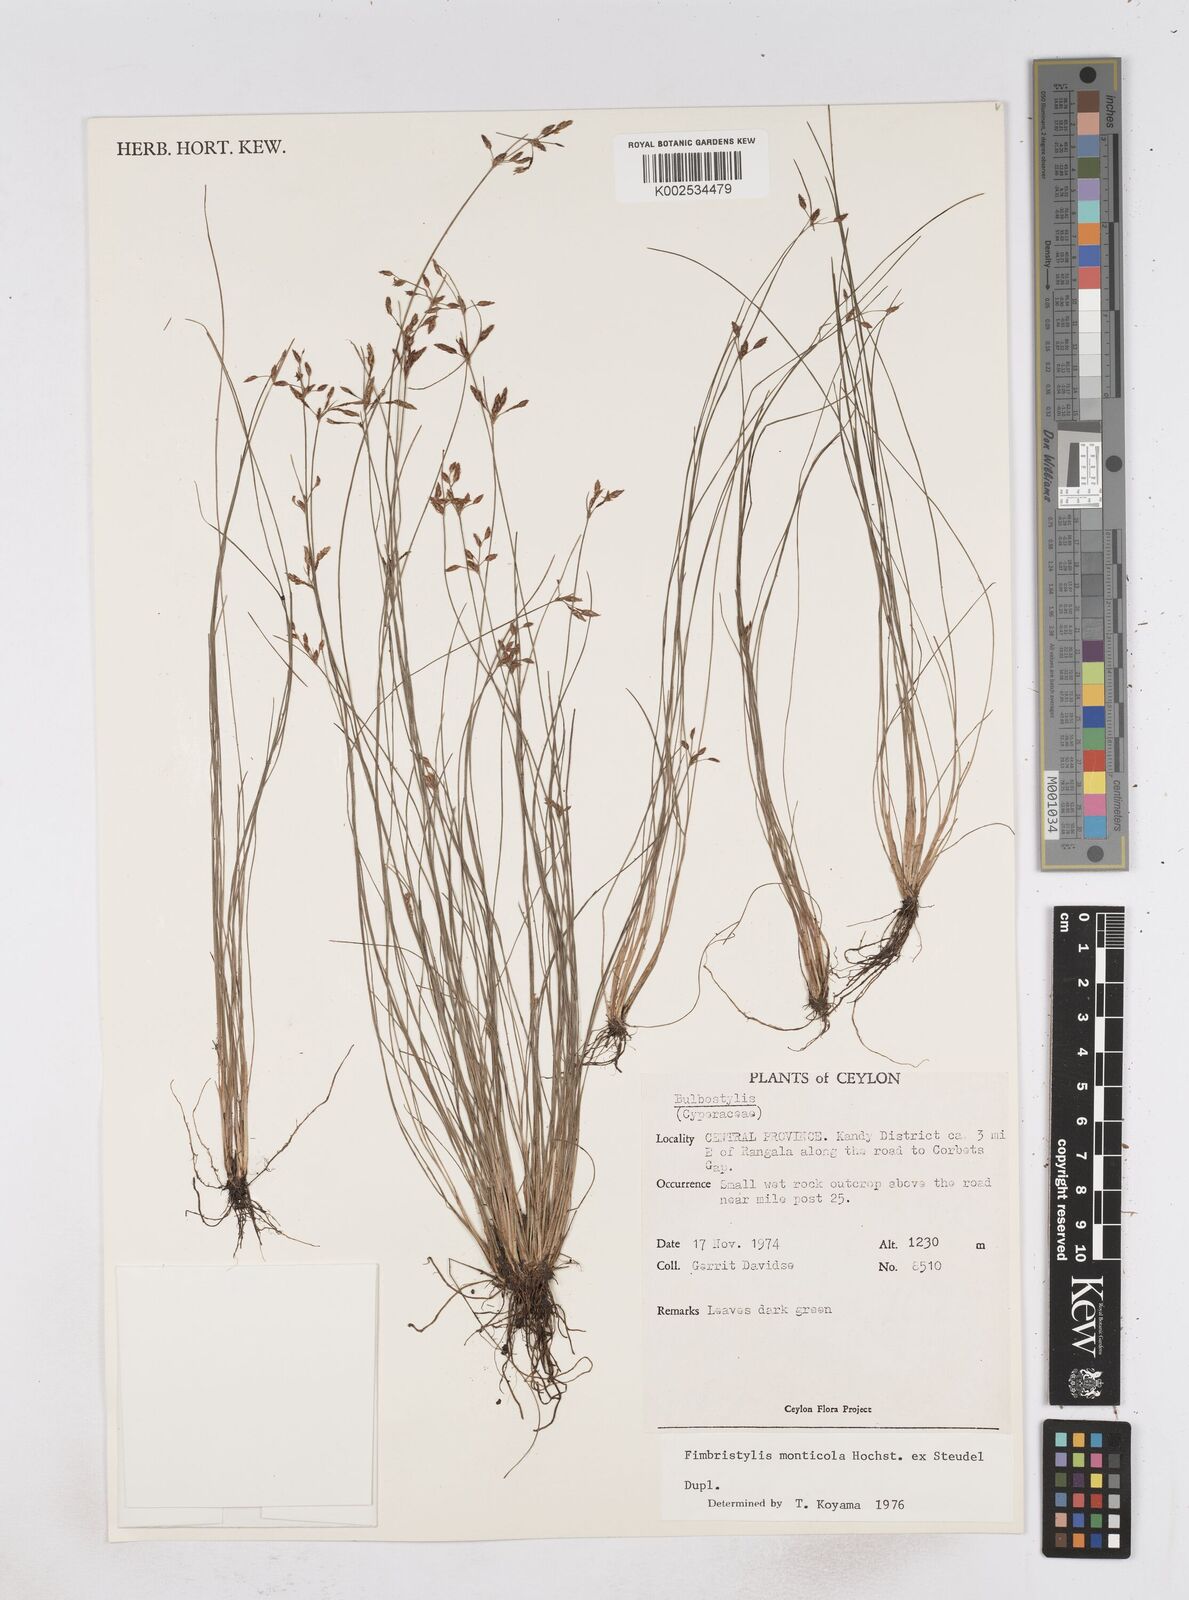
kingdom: Plantae
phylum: Tracheophyta
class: Liliopsida
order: Poales
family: Cyperaceae
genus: Fimbristylis
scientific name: Fimbristylis monticola
